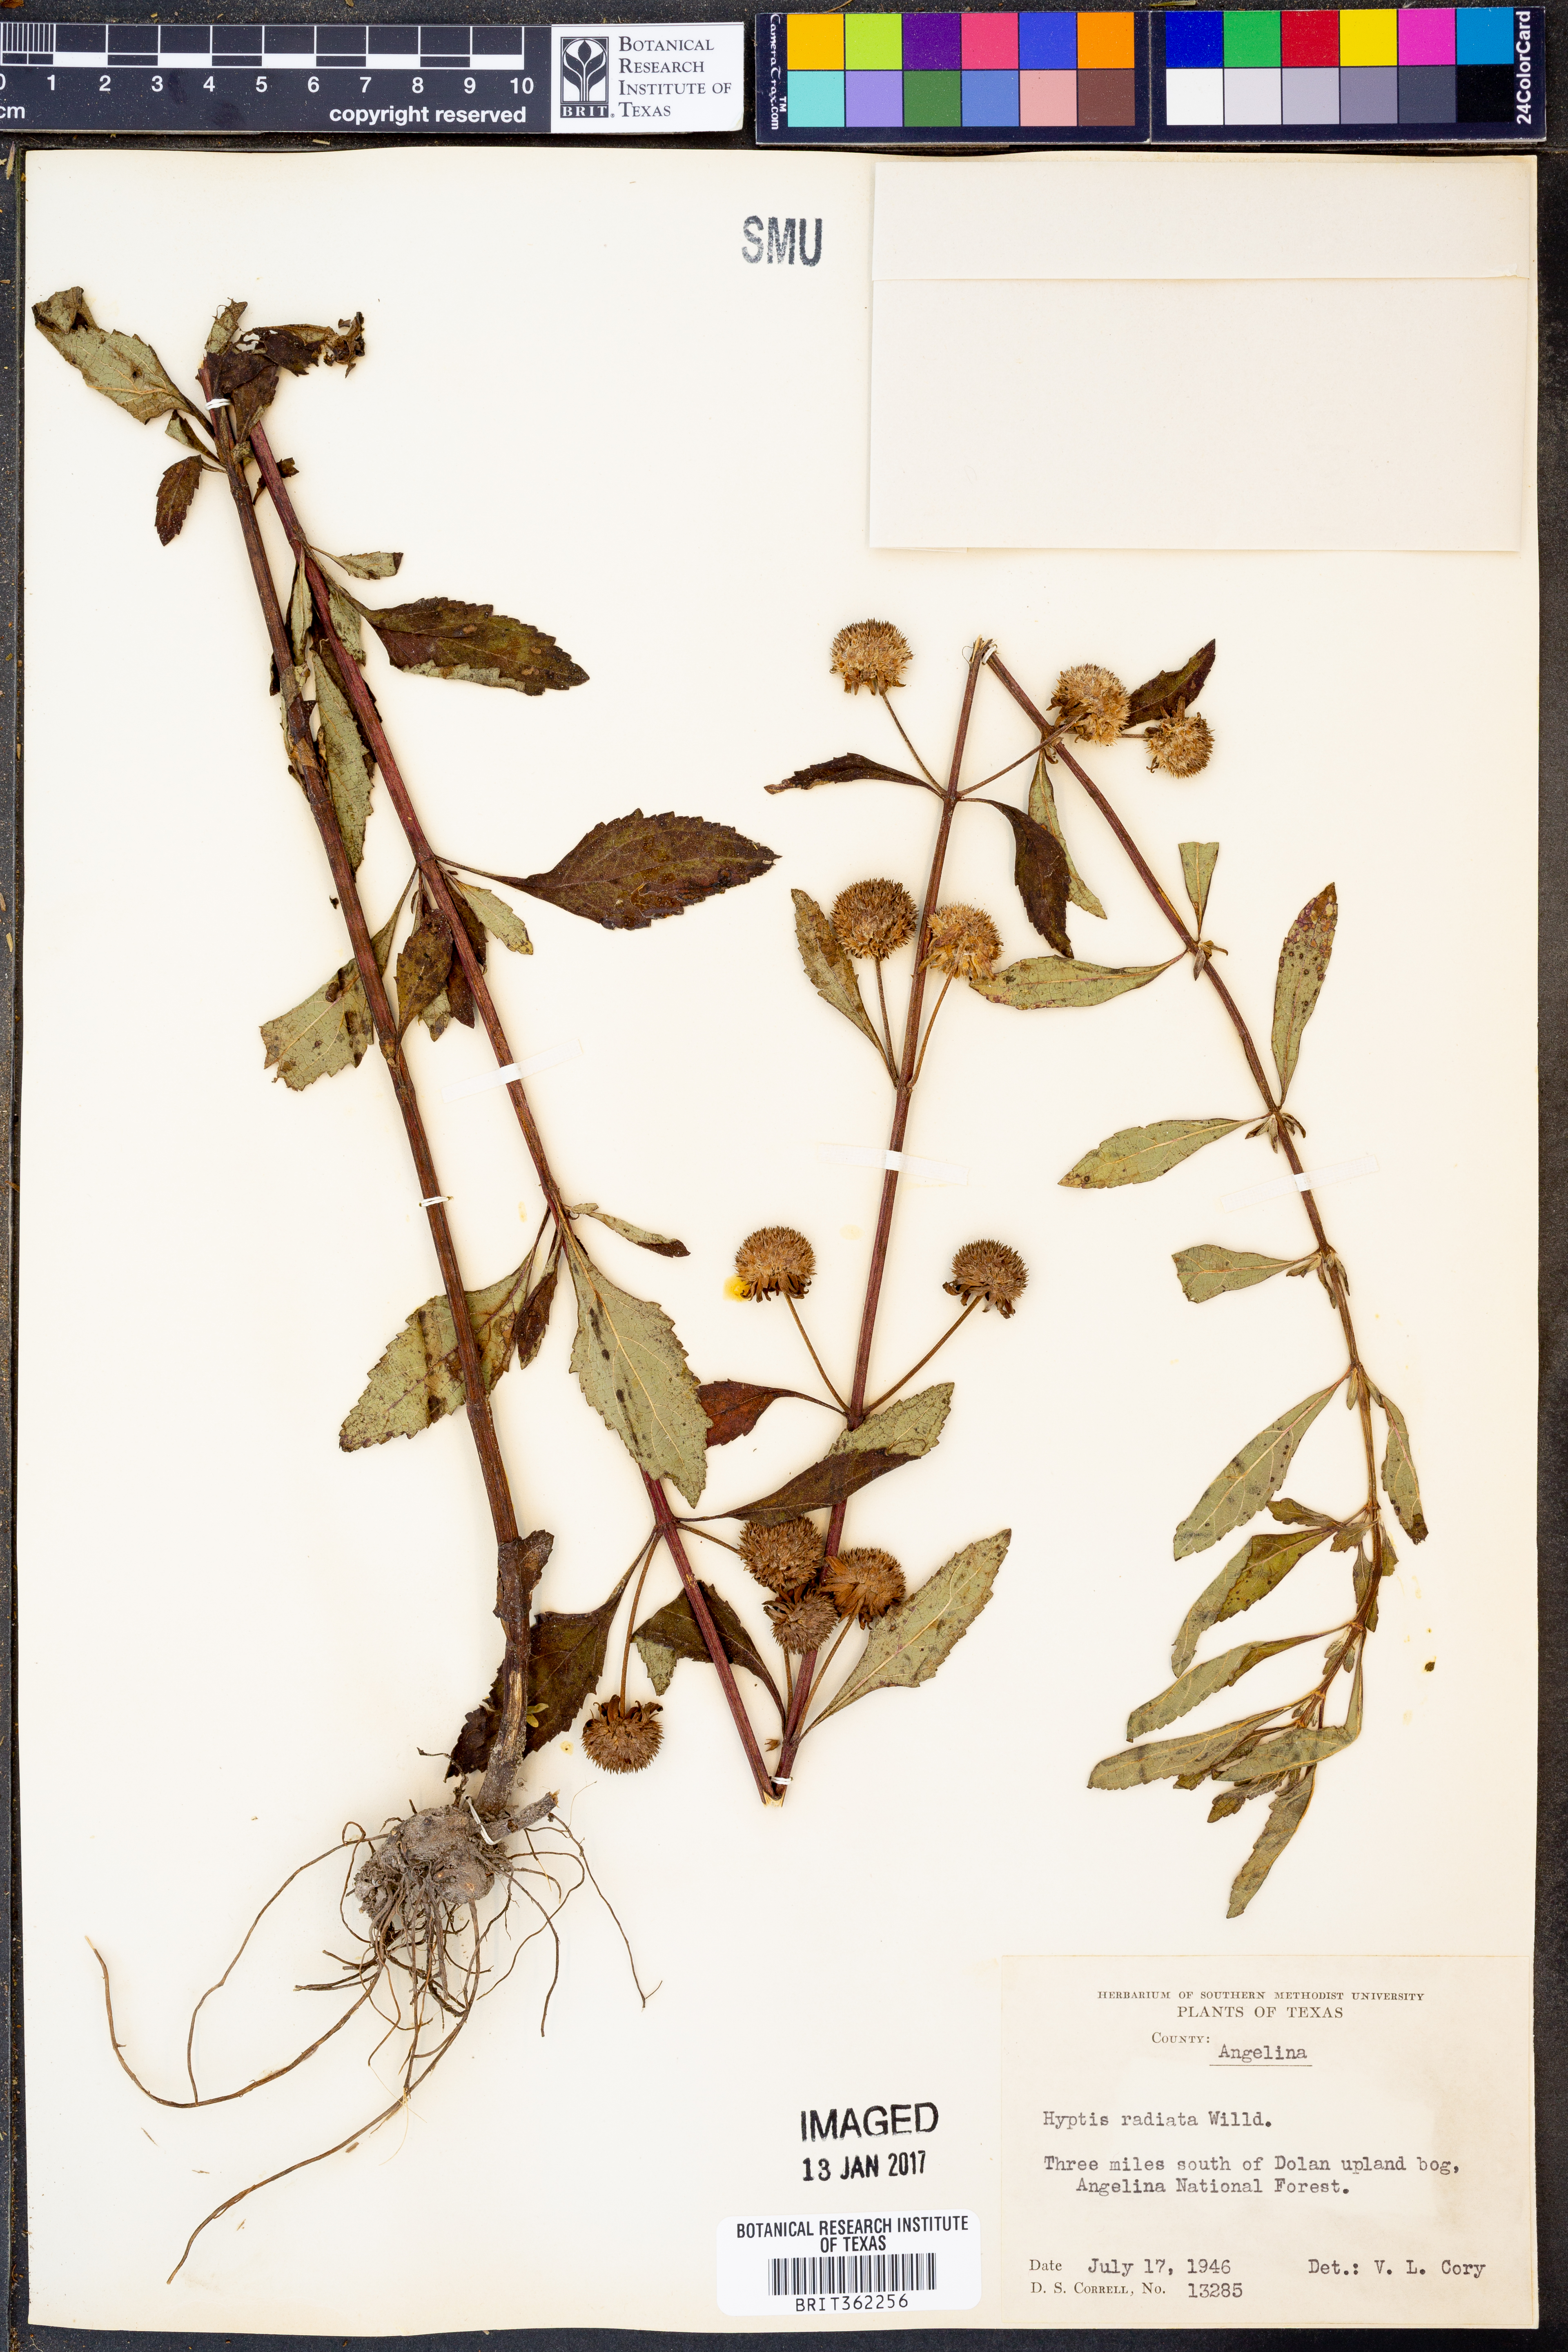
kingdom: Plantae
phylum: Tracheophyta
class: Magnoliopsida
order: Lamiales
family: Lamiaceae
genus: Hyptis
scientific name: Hyptis alata
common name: Cluster bush-mint
